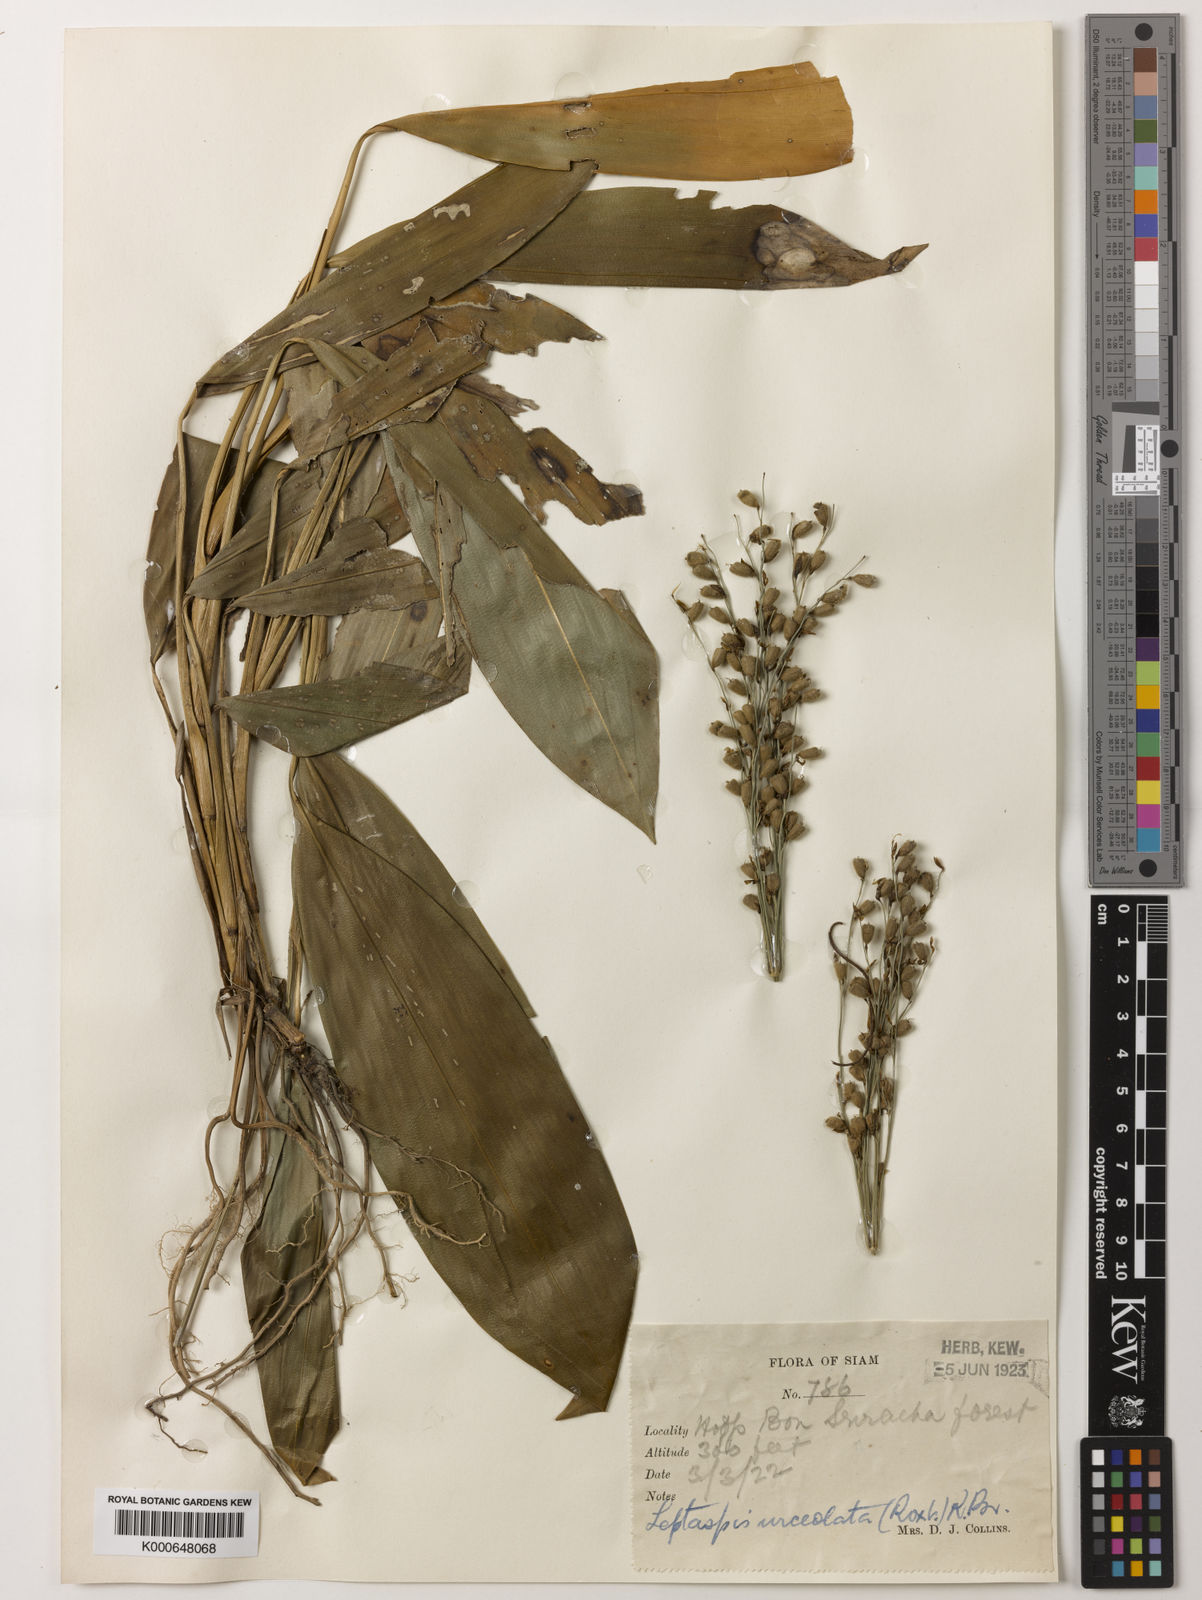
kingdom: Plantae
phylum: Tracheophyta
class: Liliopsida
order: Poales
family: Poaceae
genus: Scrotochloa
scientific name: Scrotochloa urceolata
